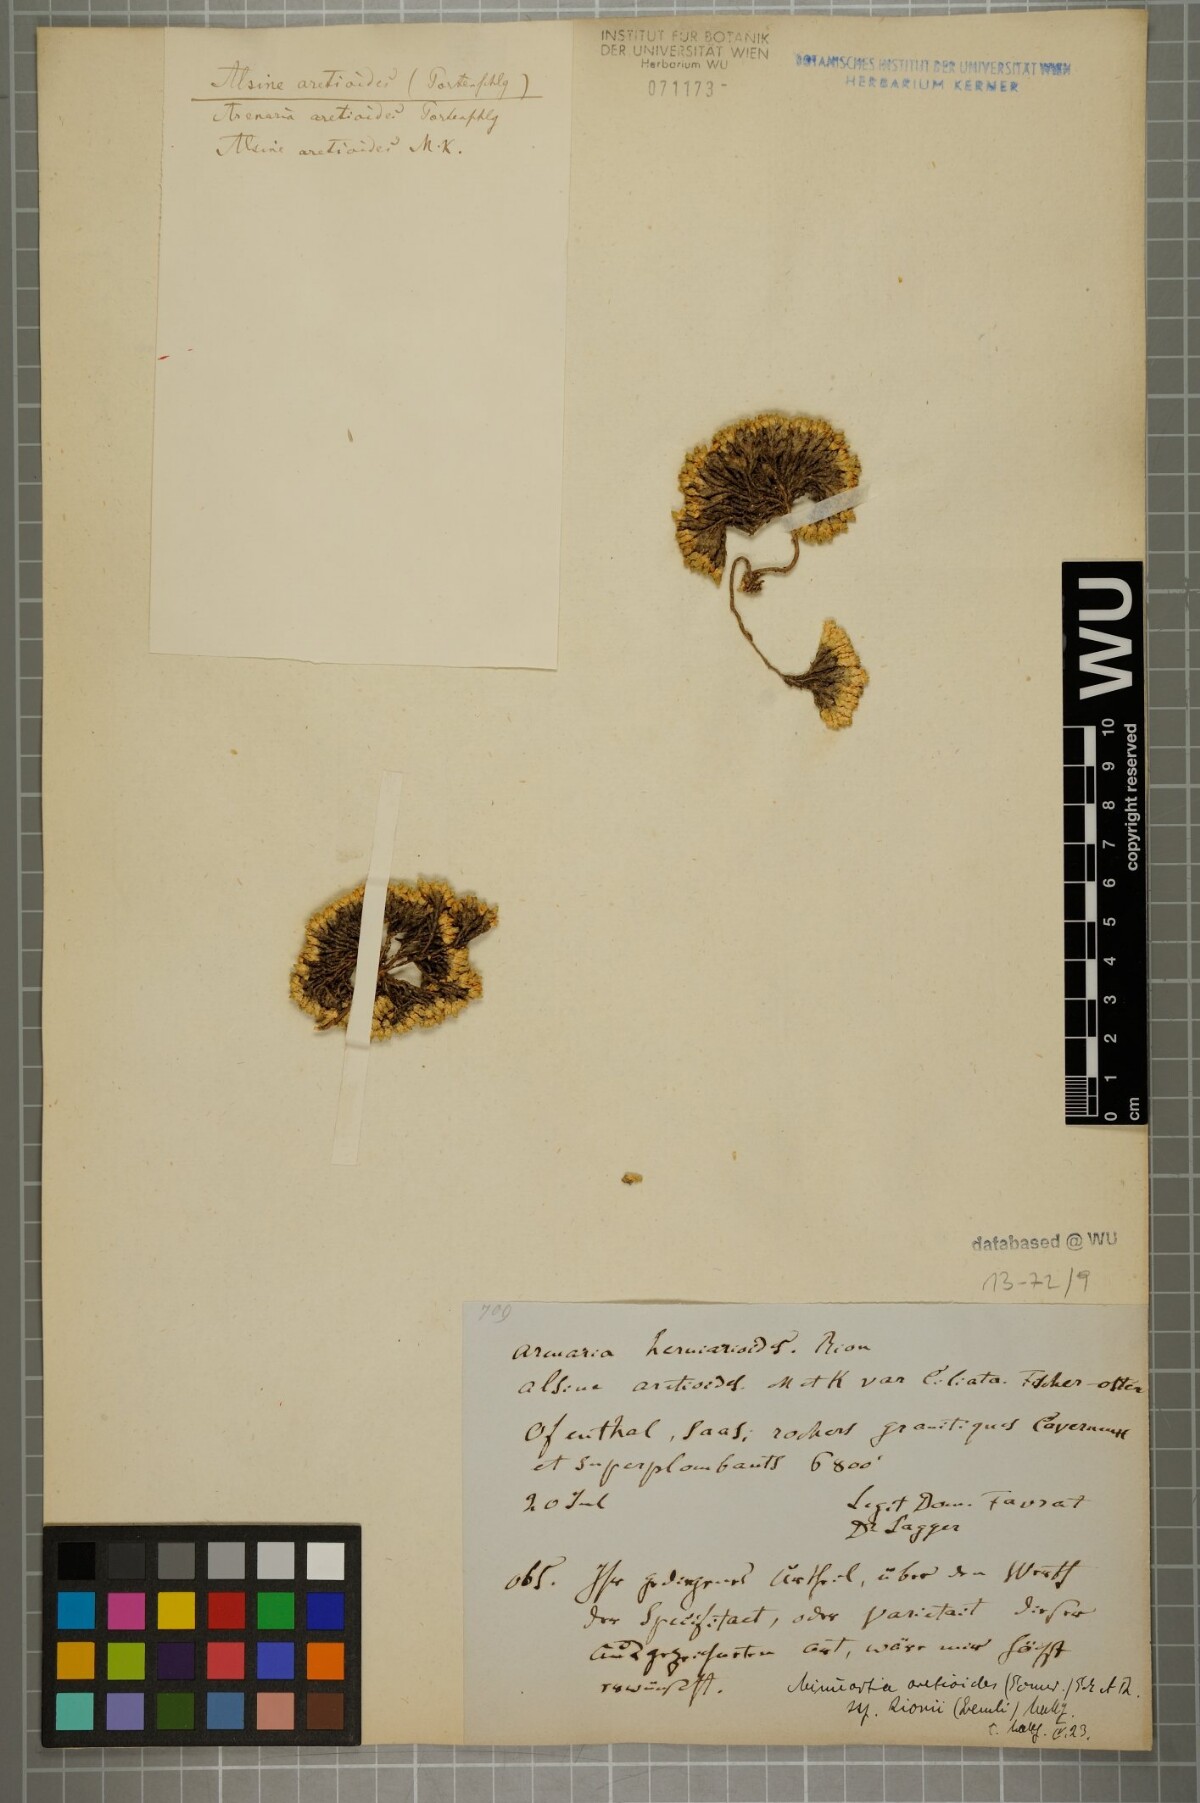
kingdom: Plantae
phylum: Tracheophyta
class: Magnoliopsida
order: Caryophyllales
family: Caryophyllaceae
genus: Facchinia
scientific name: Facchinia herniarioides
